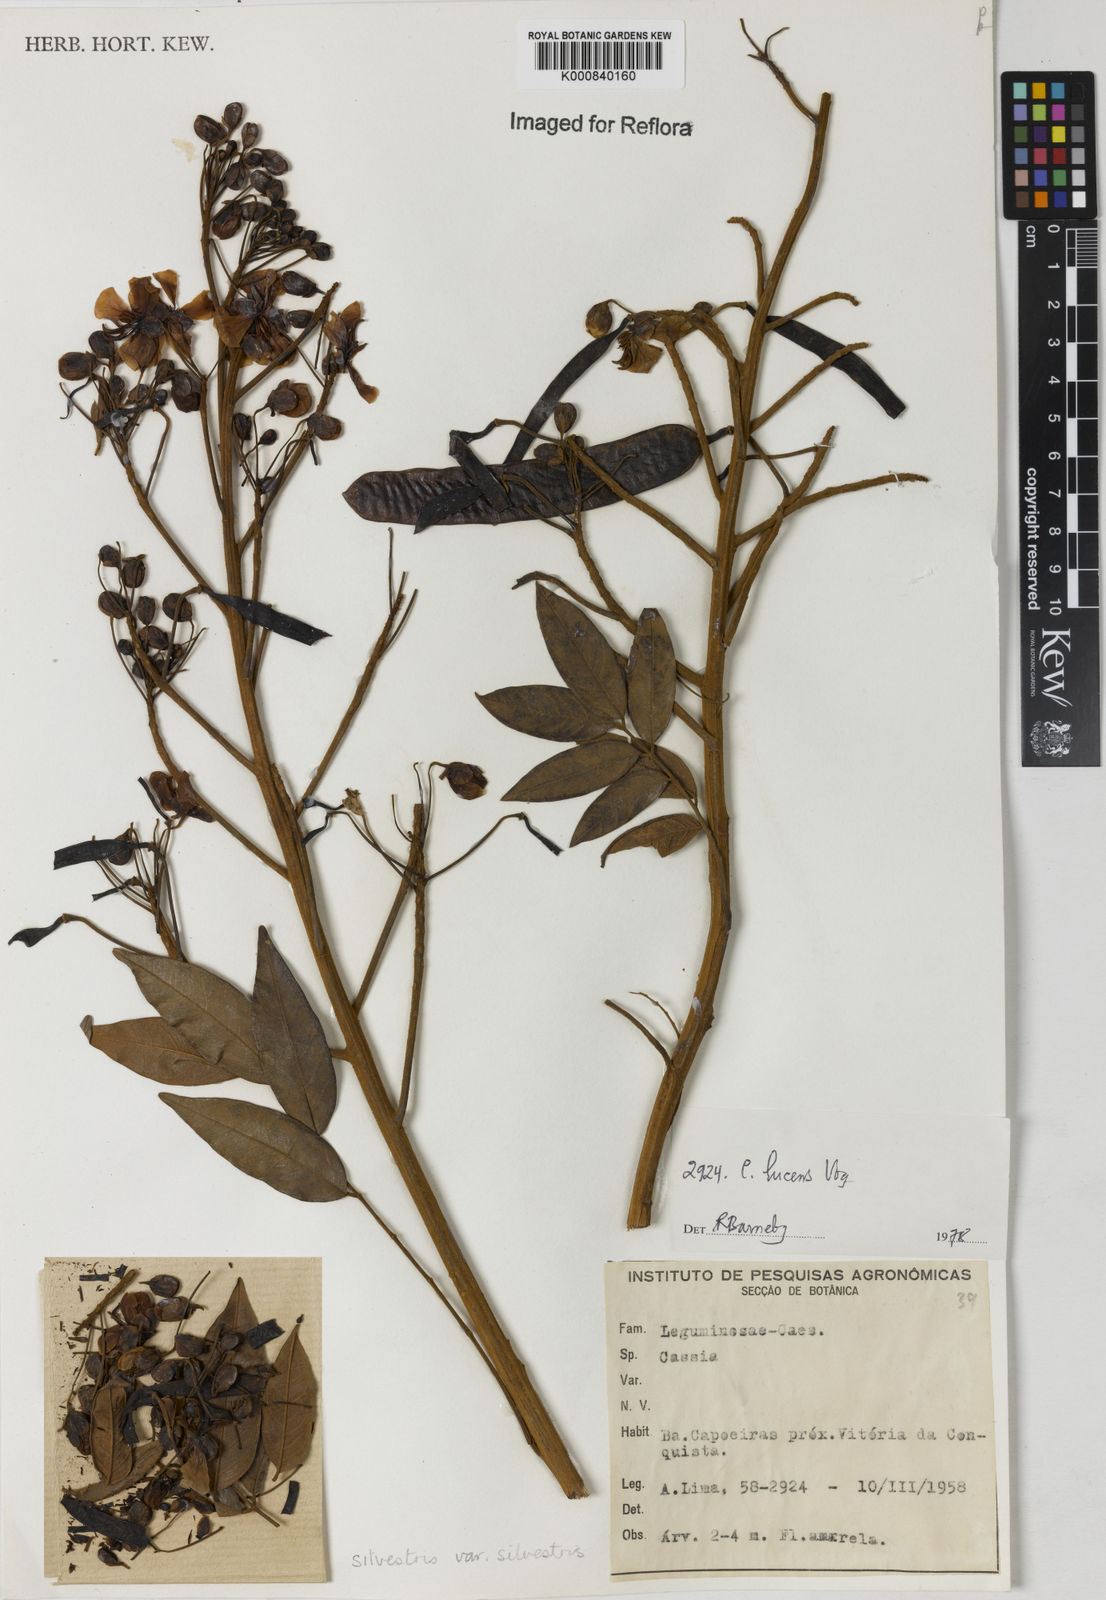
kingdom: Plantae
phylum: Tracheophyta
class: Magnoliopsida
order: Fabales
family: Fabaceae
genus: Senna
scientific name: Senna silvestris
